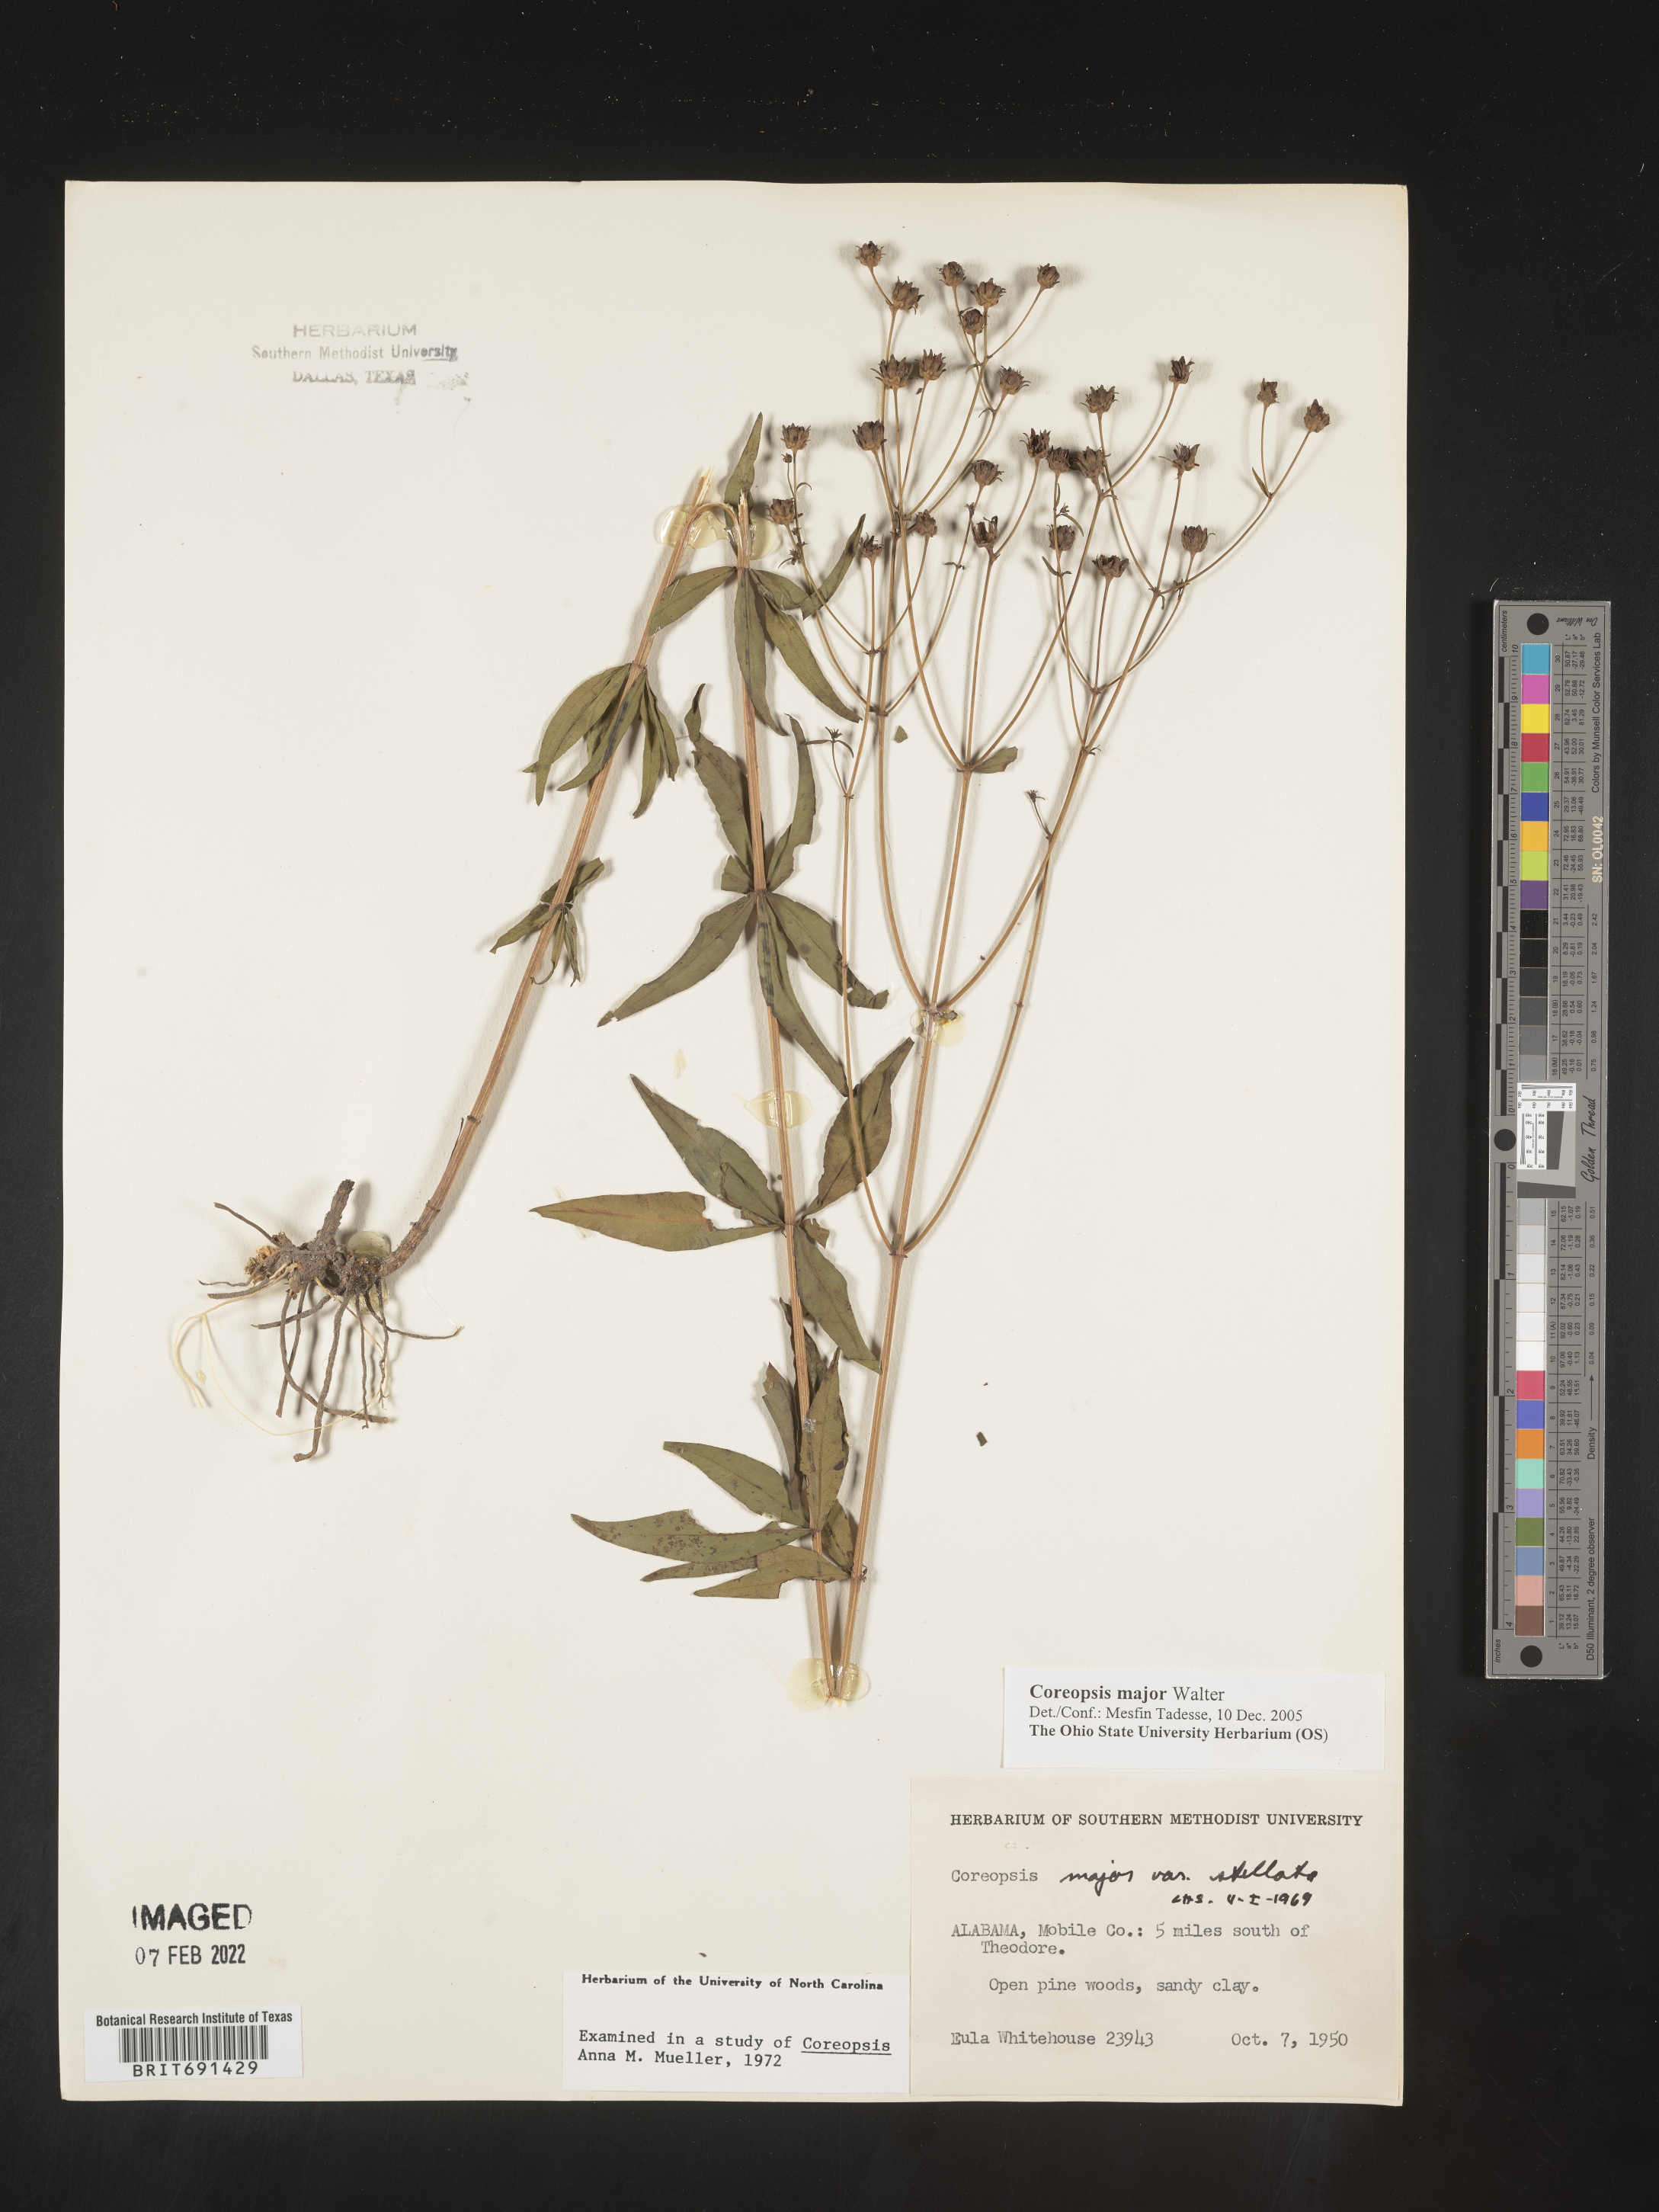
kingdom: Plantae
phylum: Tracheophyta
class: Magnoliopsida
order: Asterales
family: Asteraceae
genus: Coreopsis
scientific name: Coreopsis major
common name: Forest tickseed
